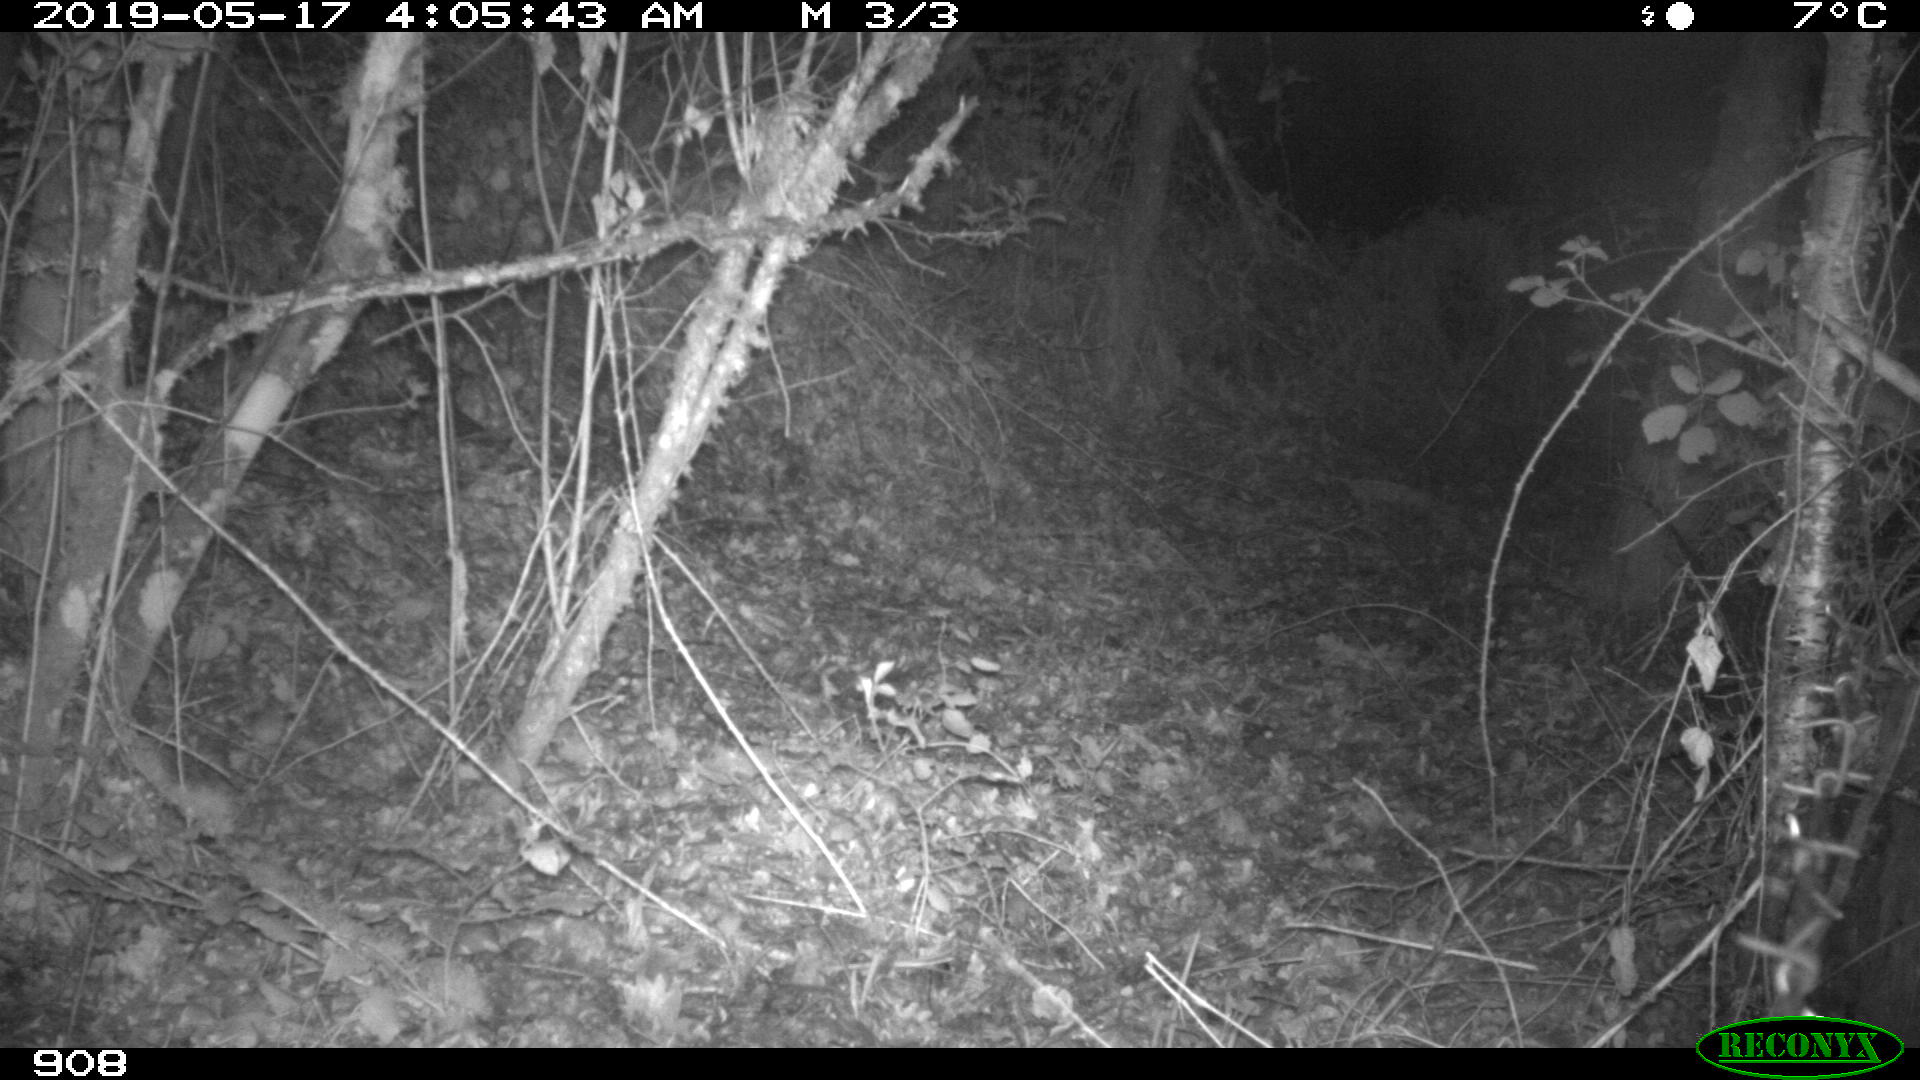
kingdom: Animalia
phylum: Chordata
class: Mammalia
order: Artiodactyla
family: Suidae
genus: Sus
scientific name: Sus scrofa
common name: Wild boar
